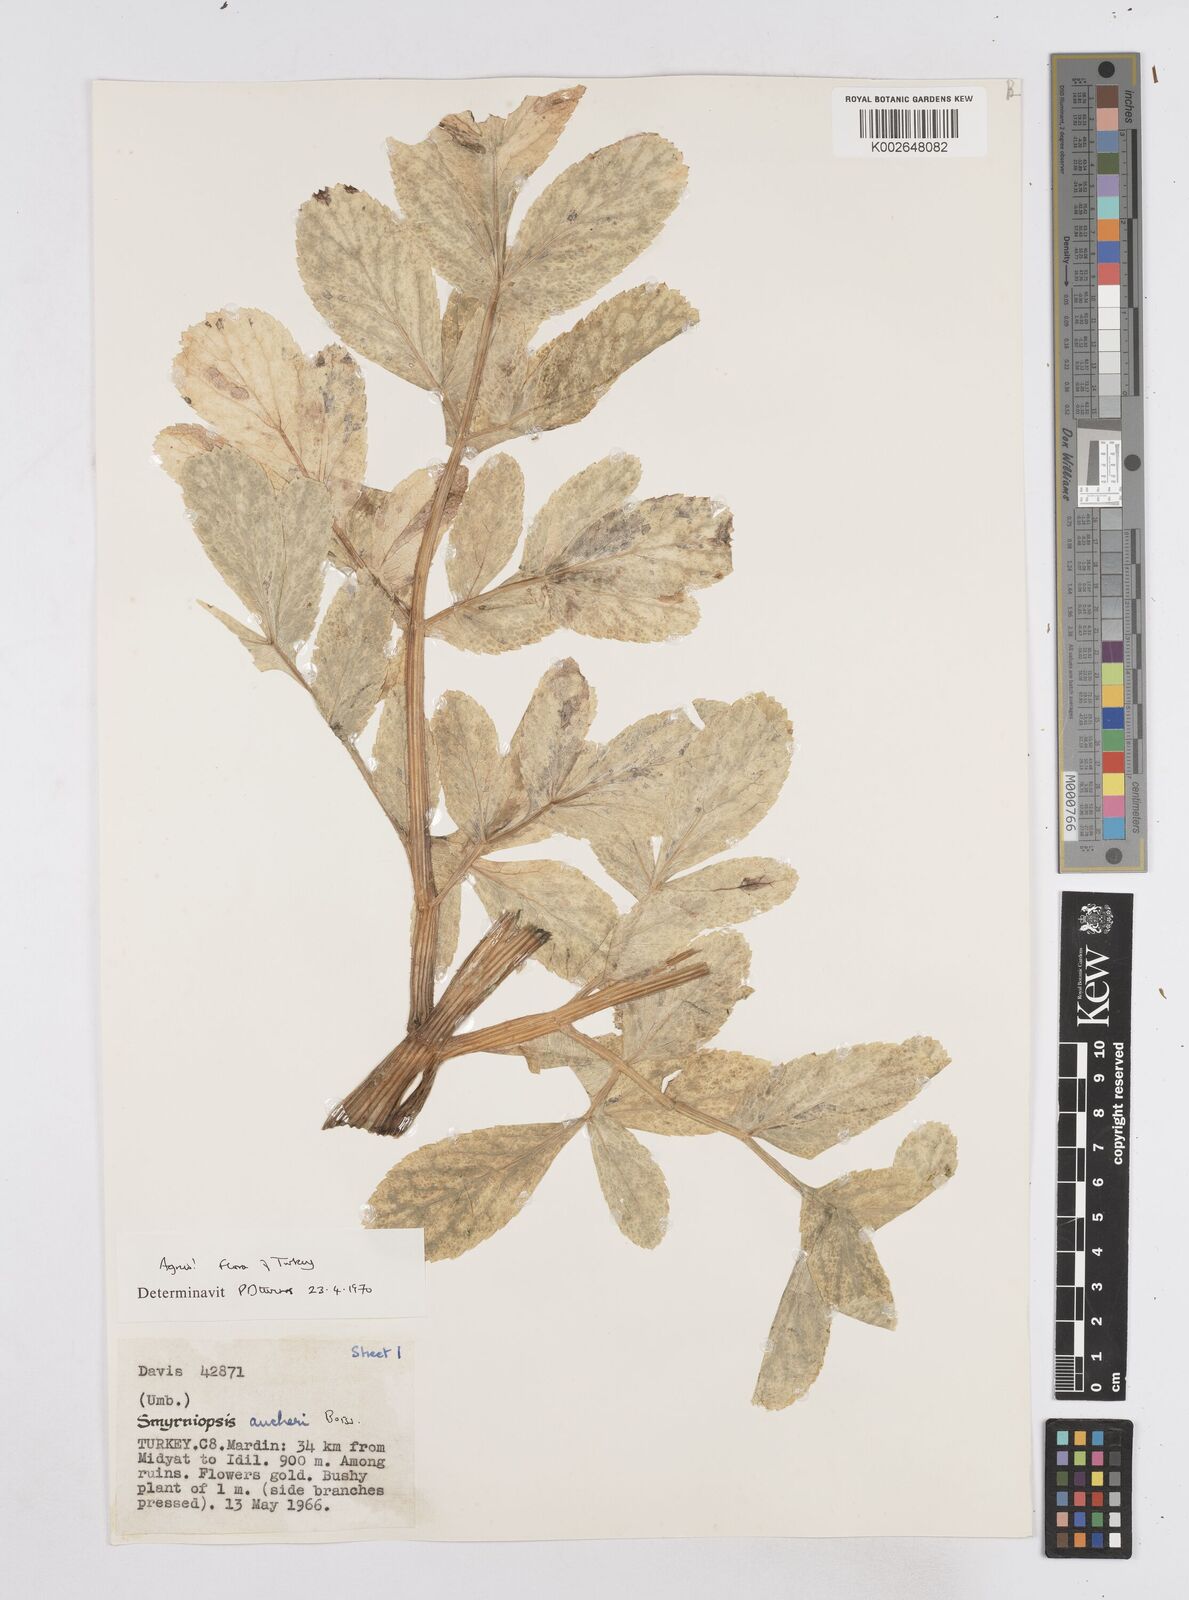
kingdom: Plantae
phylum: Tracheophyta
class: Magnoliopsida
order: Apiales
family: Apiaceae
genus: Smyrniopsis
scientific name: Smyrniopsis aucheri
